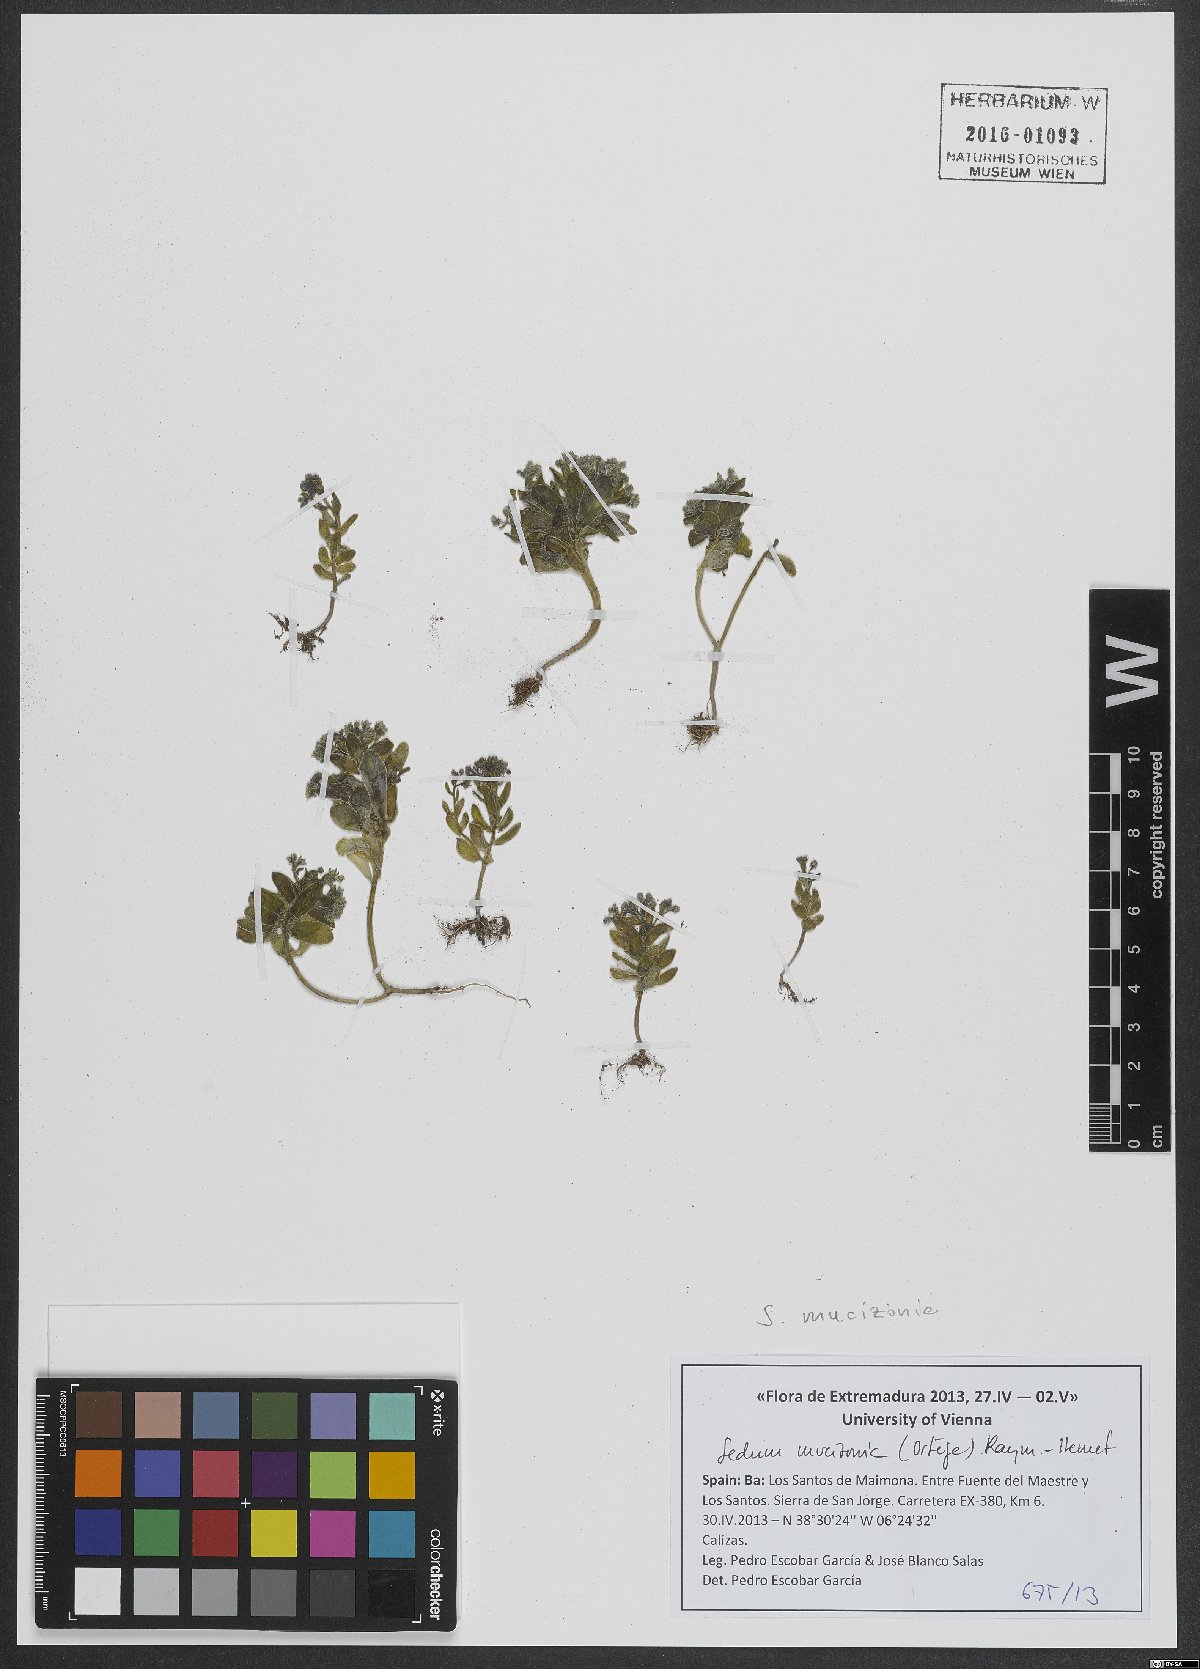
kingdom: Plantae
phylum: Tracheophyta
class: Magnoliopsida
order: Saxifragales
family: Crassulaceae
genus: Sedum
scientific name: Sedum mucizonia
